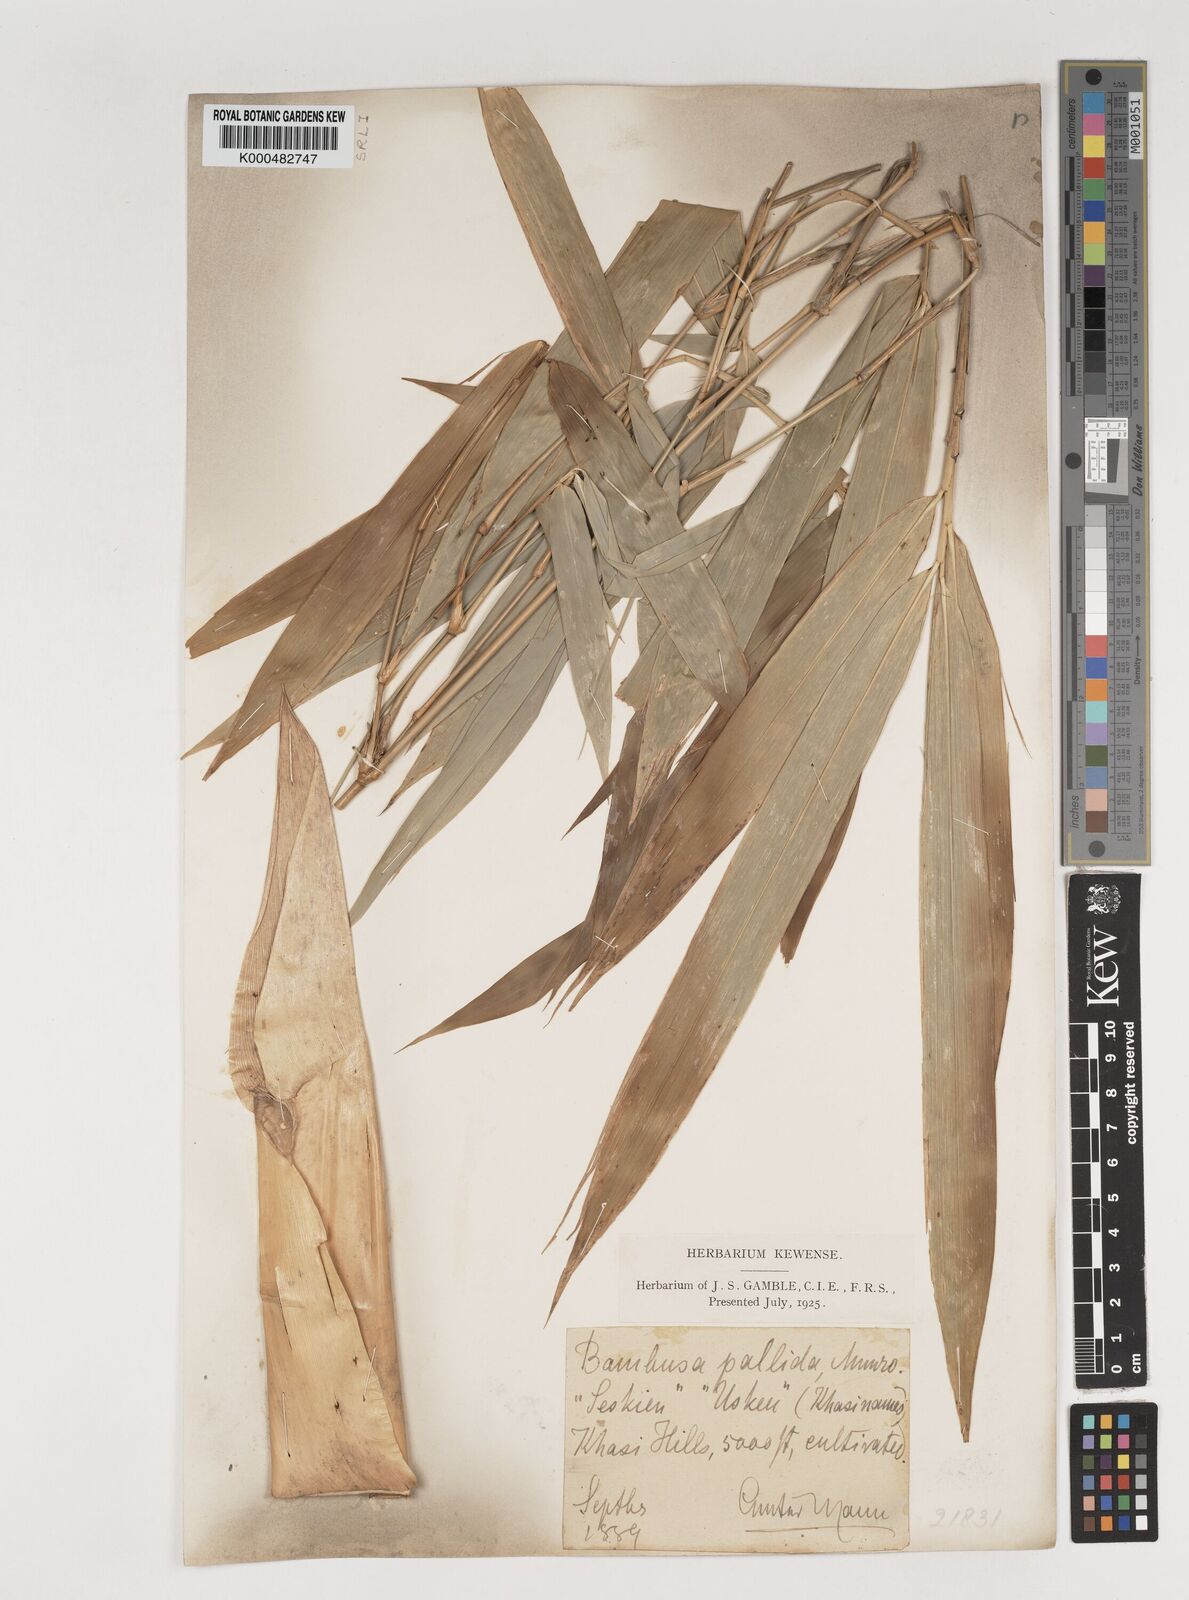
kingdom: Plantae
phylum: Tracheophyta
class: Liliopsida
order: Poales
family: Poaceae
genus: Bambusa
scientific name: Bambusa pallida
